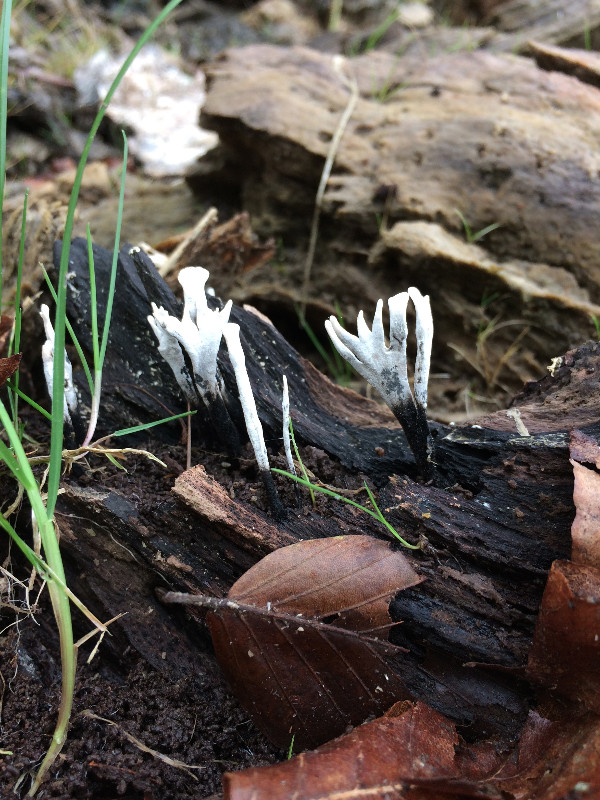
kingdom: Fungi
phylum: Ascomycota
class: Sordariomycetes
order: Xylariales
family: Xylariaceae
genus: Xylaria
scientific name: Xylaria hypoxylon
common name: grenet stødsvamp
